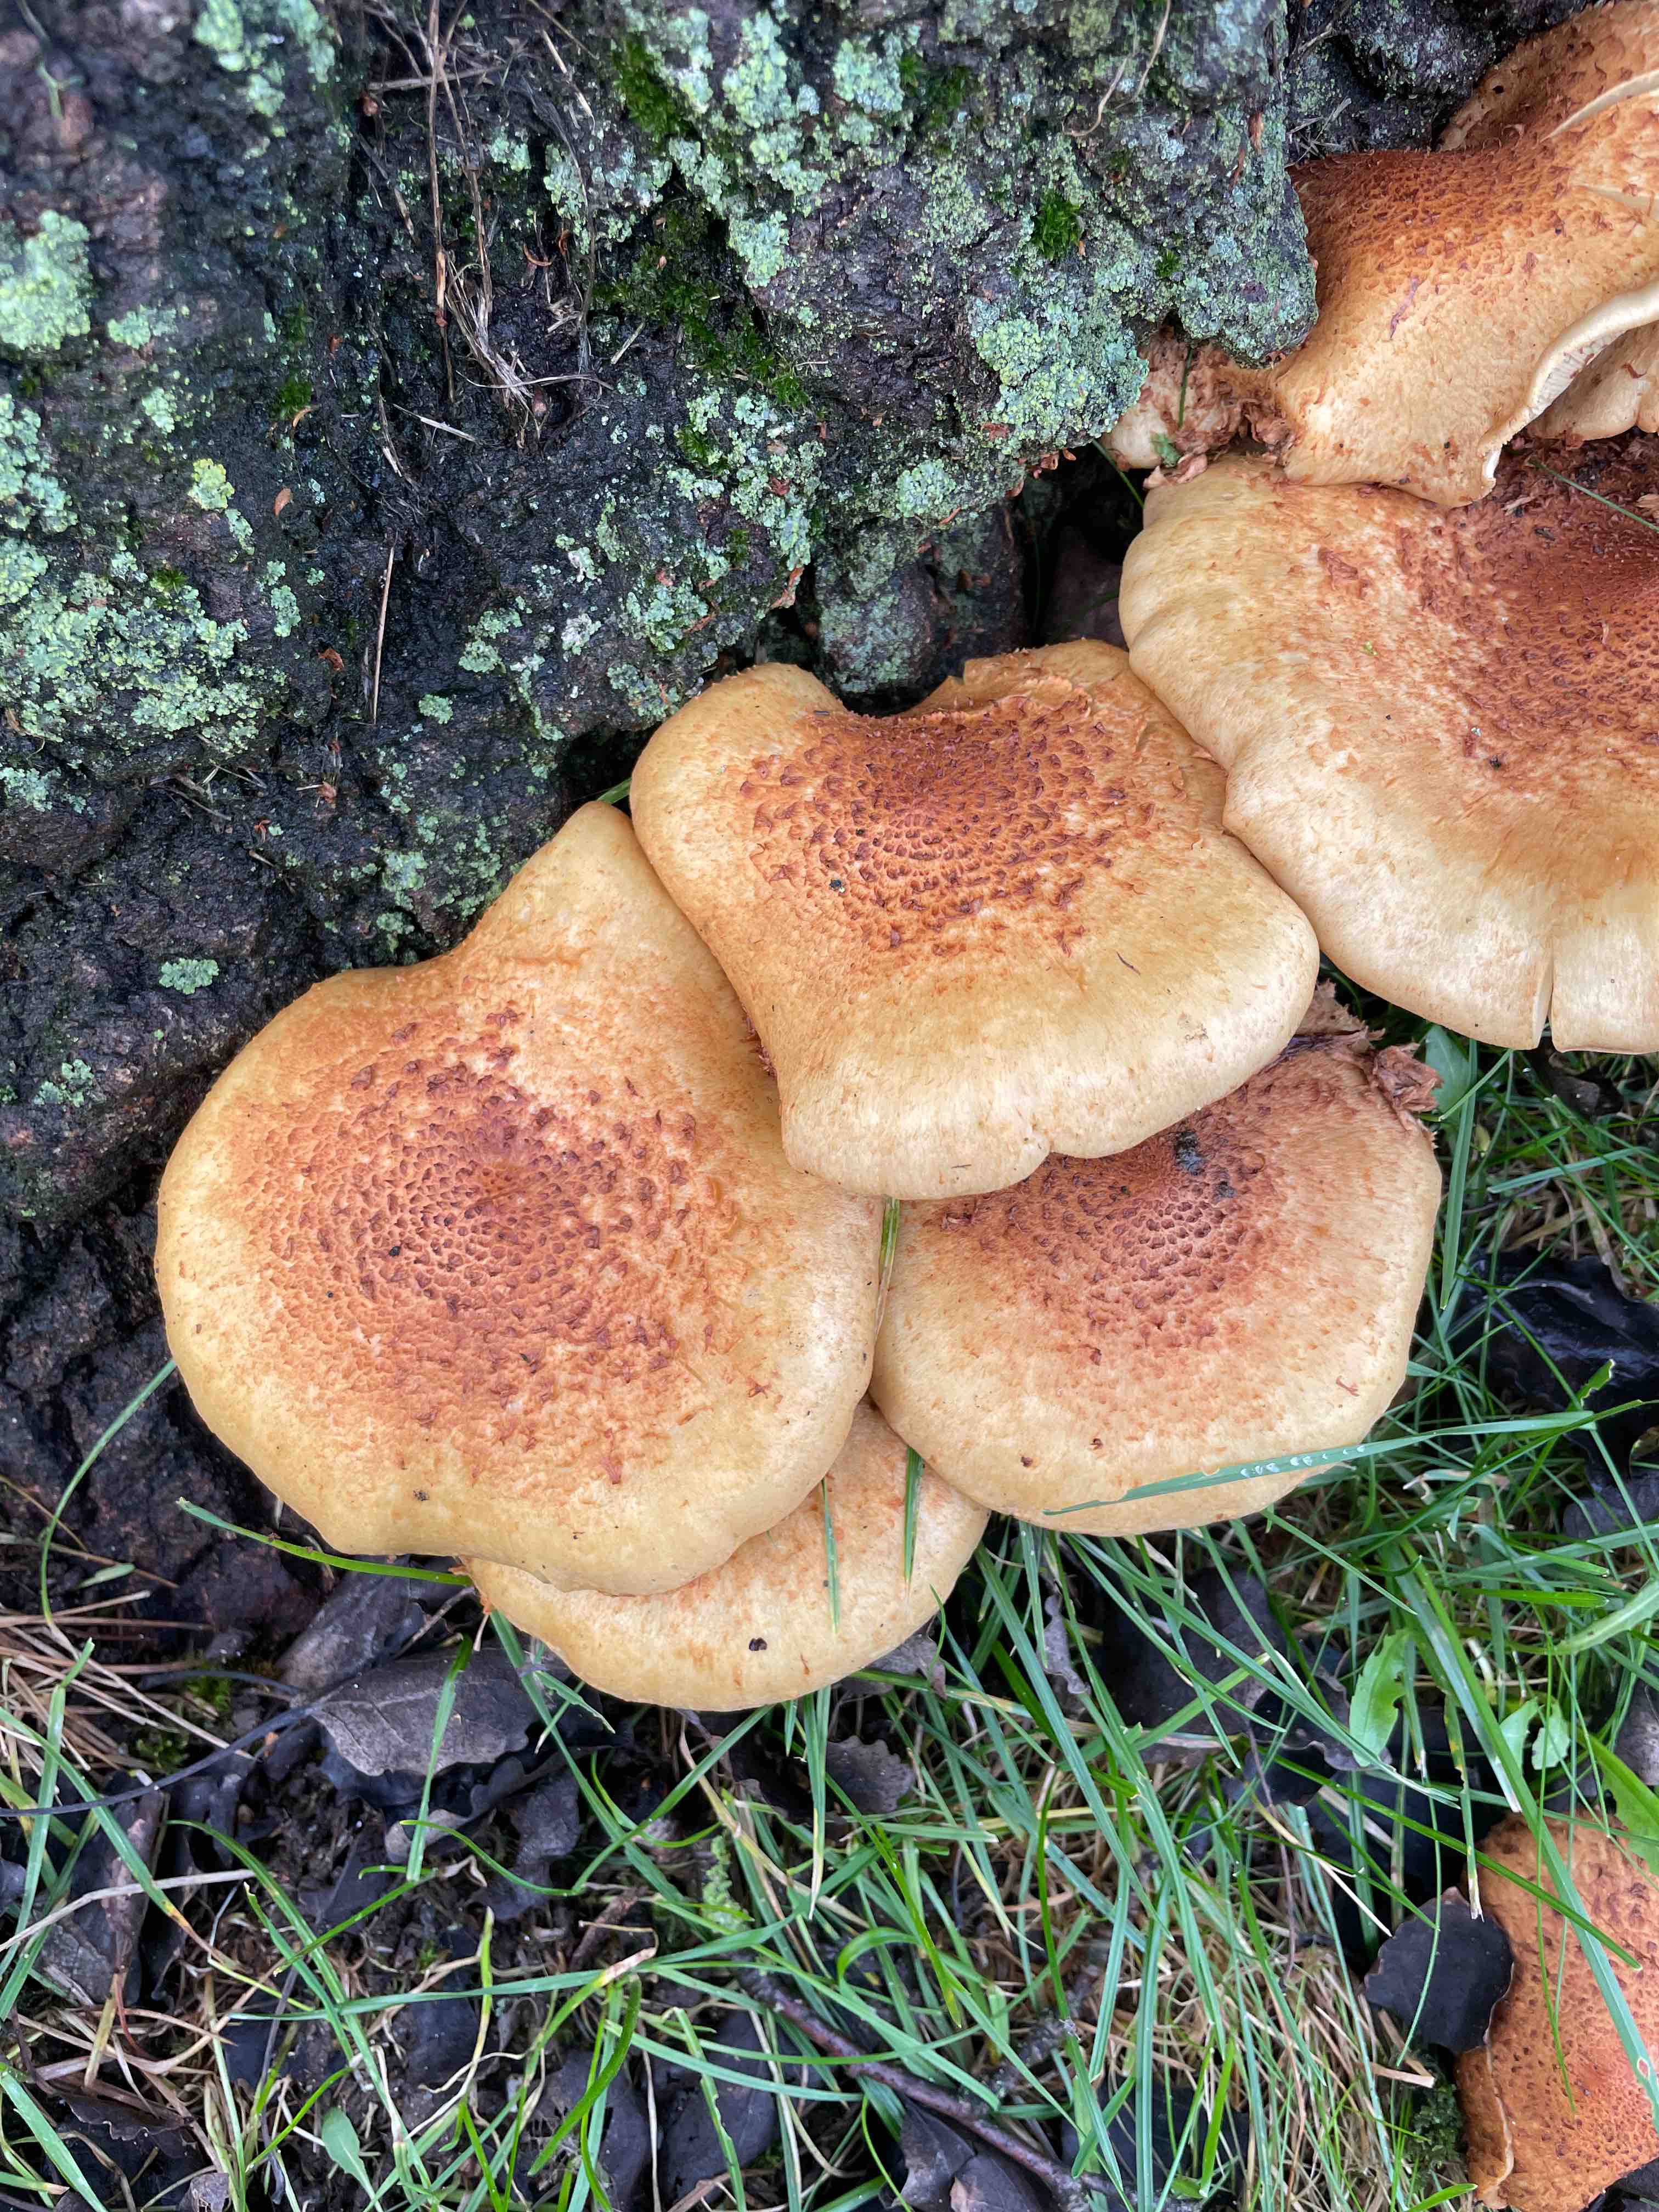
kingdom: Fungi
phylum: Basidiomycota
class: Agaricomycetes
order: Agaricales
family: Strophariaceae
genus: Pholiota
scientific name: Pholiota squarrosa
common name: krumskællet skælhat
